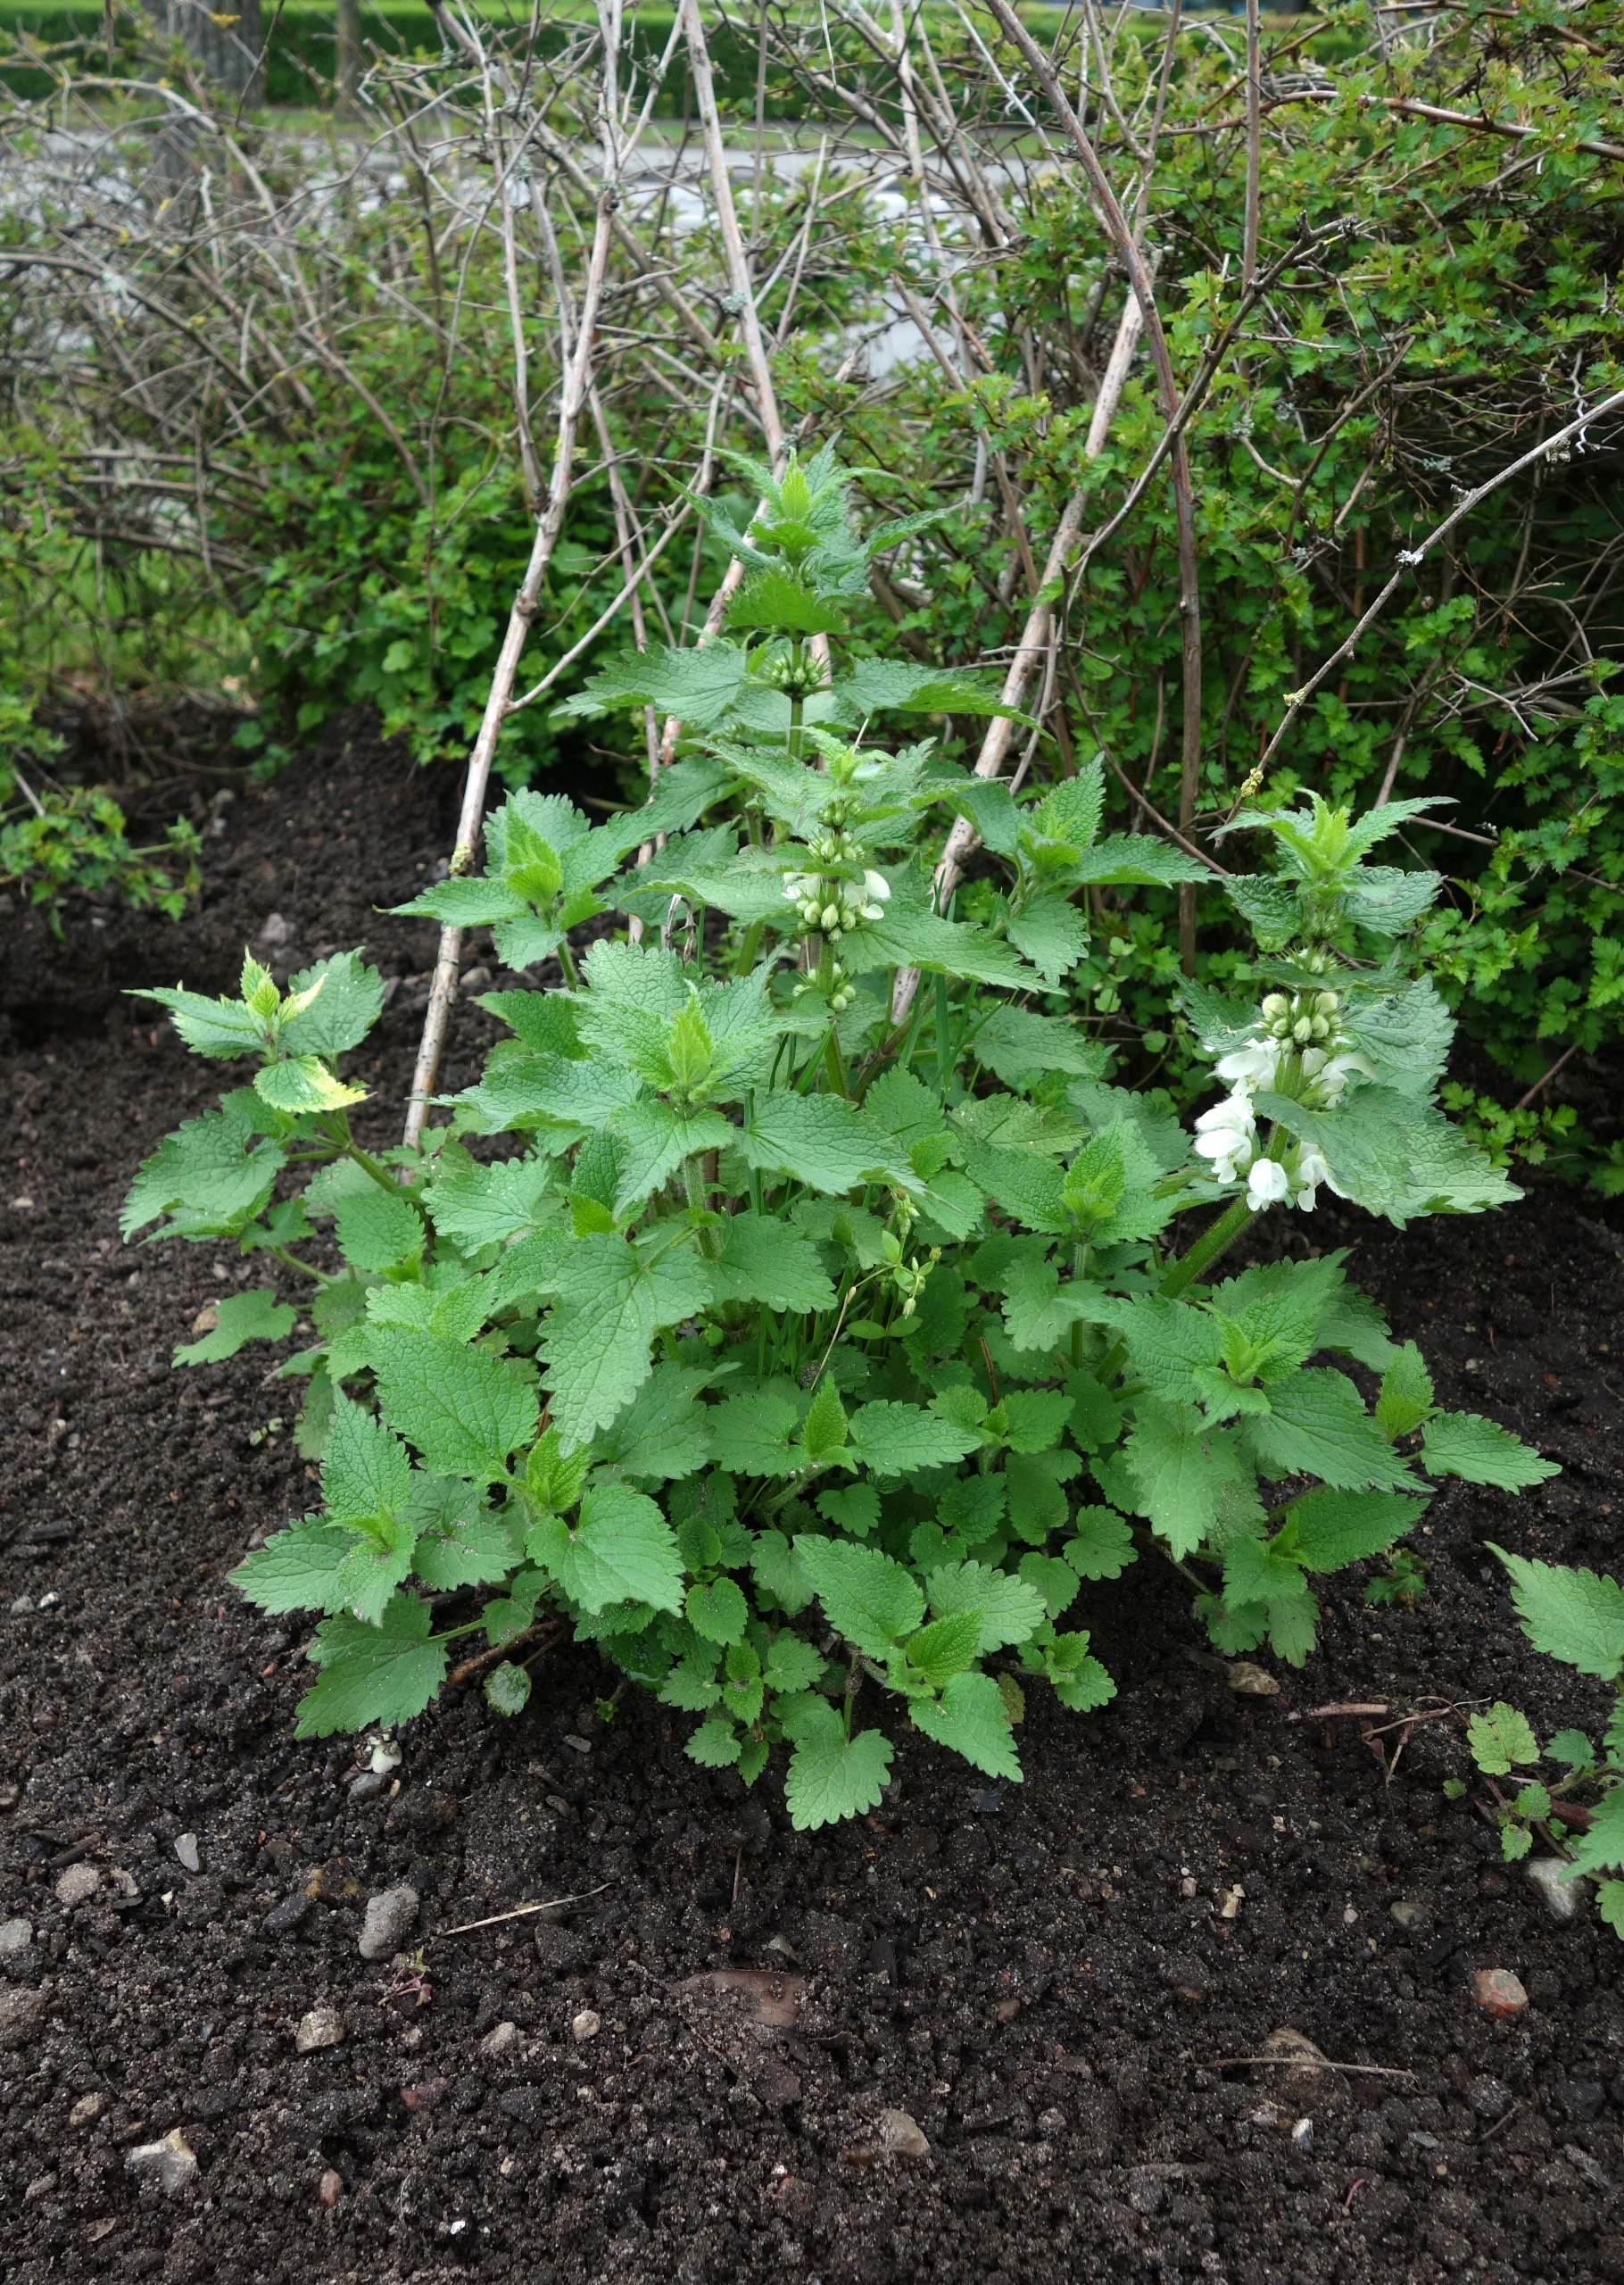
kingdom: Plantae
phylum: Tracheophyta
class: Magnoliopsida
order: Lamiales
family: Lamiaceae
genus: Lamium
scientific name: Lamium album
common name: Døvnælde
